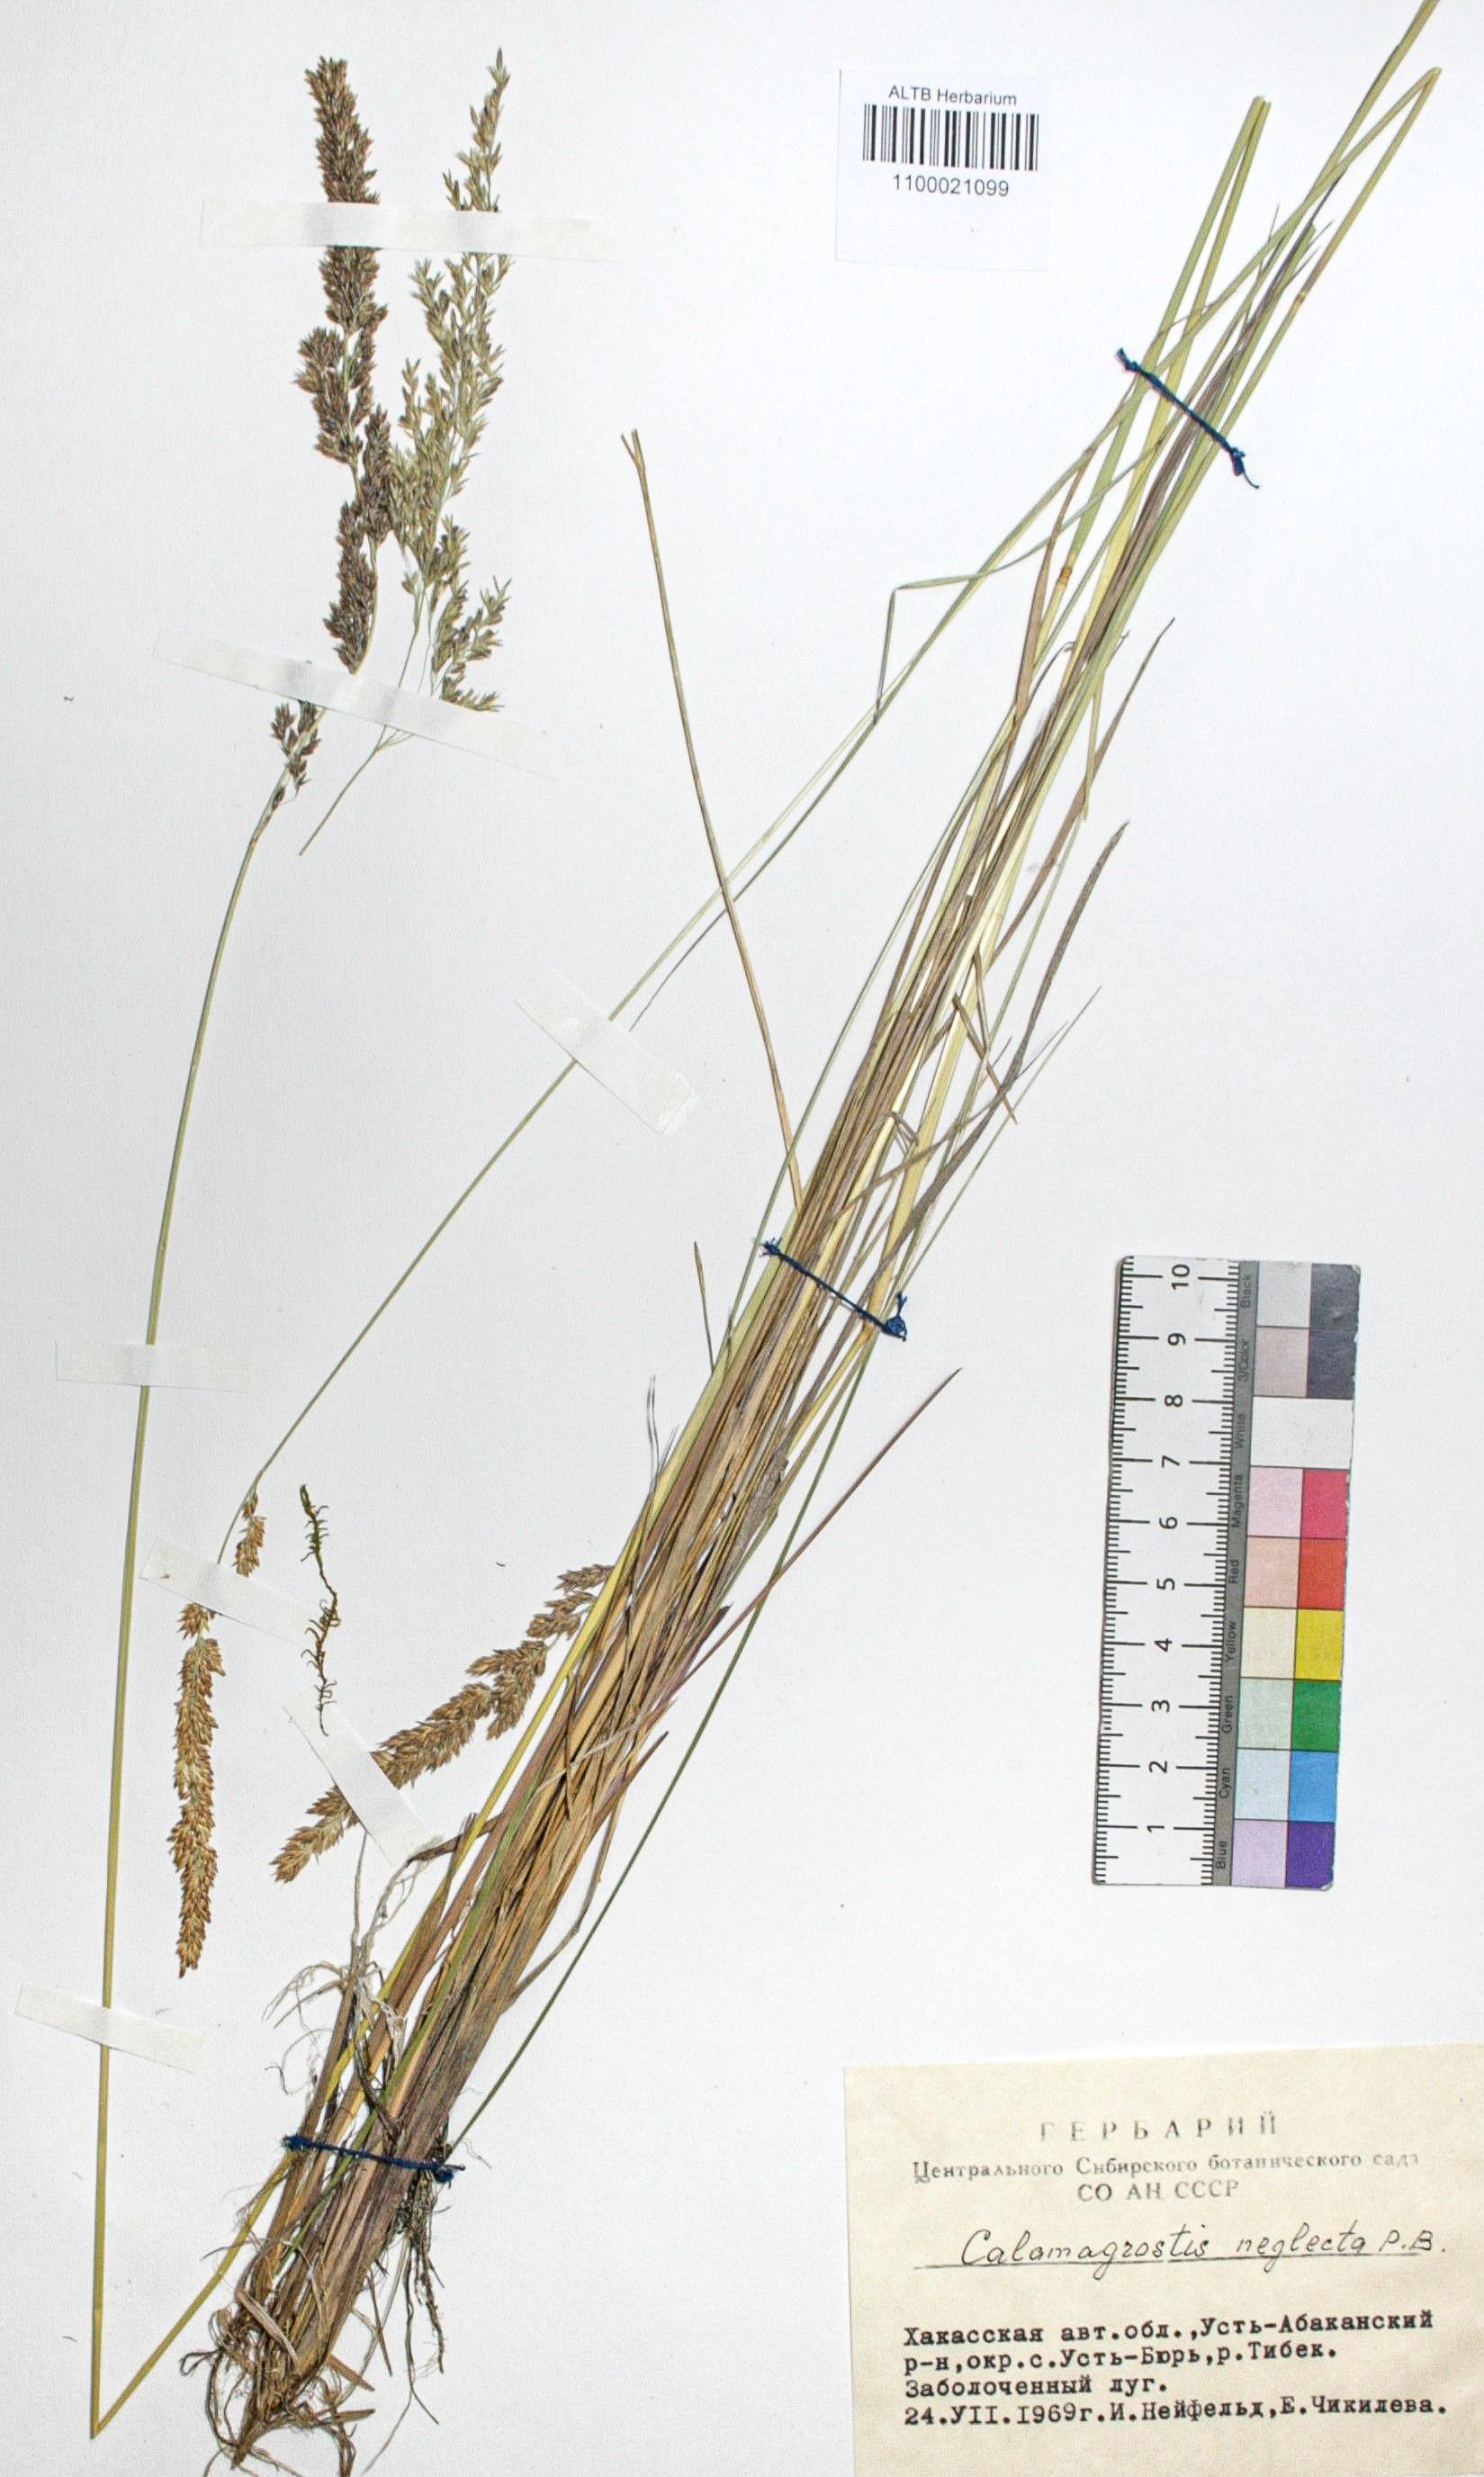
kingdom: Plantae
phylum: Tracheophyta
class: Liliopsida
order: Poales
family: Poaceae
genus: Achnatherum
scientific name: Achnatherum calamagrostis
